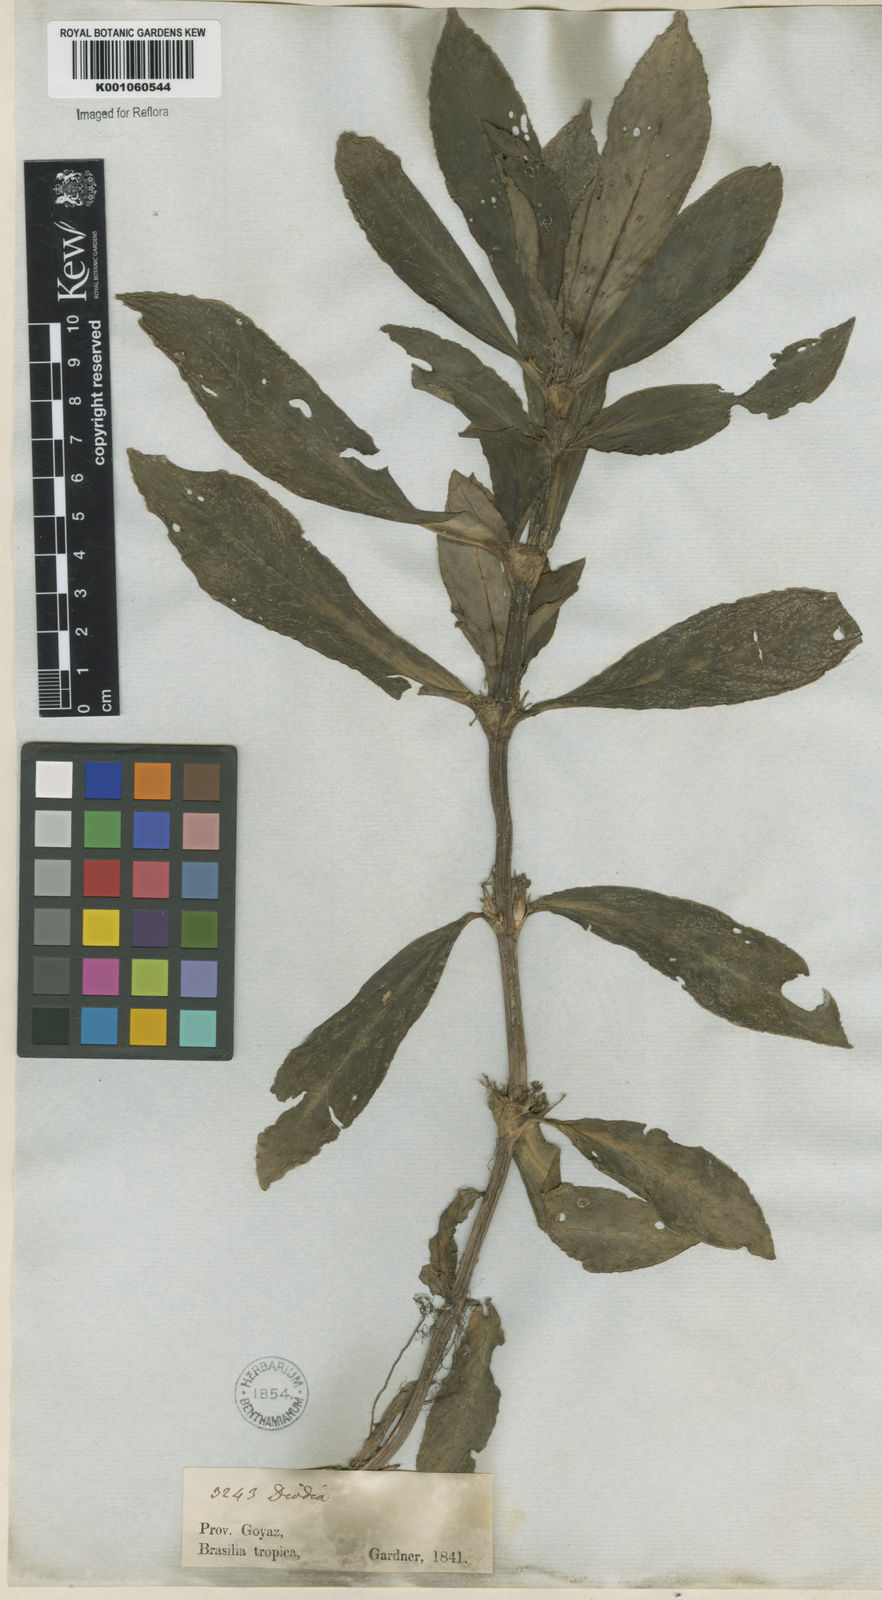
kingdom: Plantae
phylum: Tracheophyta
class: Magnoliopsida
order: Gentianales
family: Rubiaceae
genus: Diodia
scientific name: Diodia macrophylla
